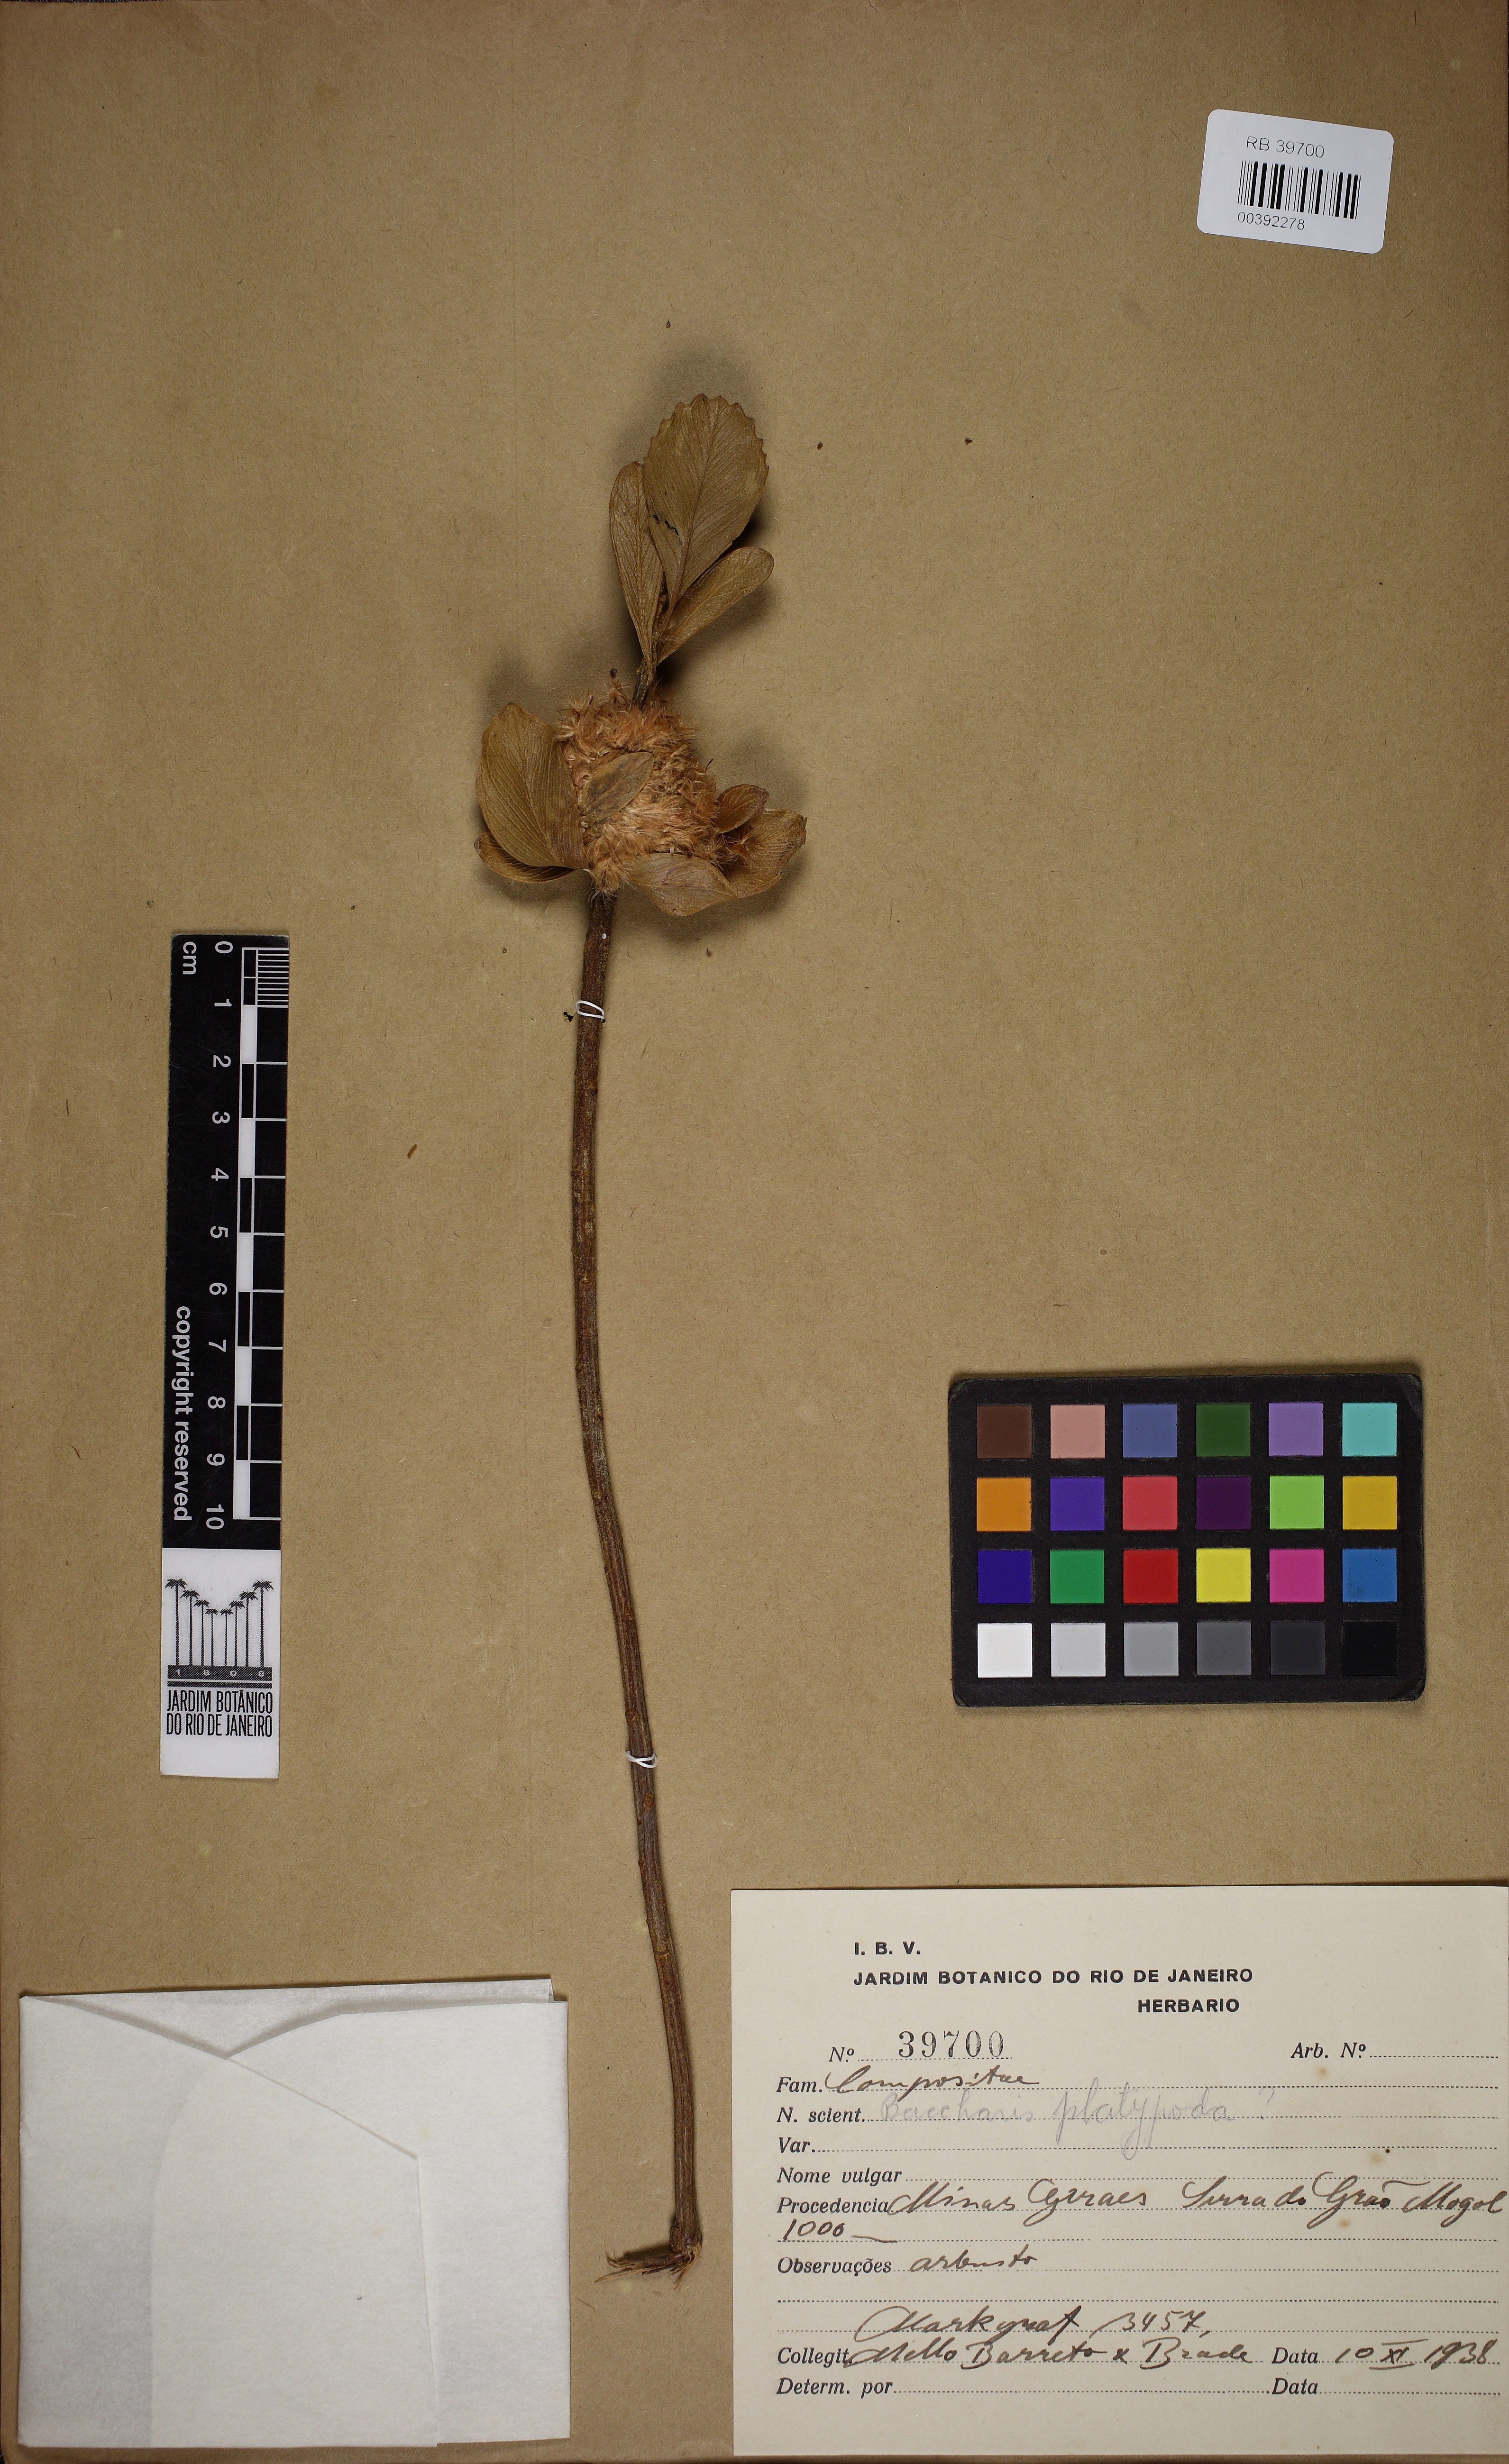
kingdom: Plantae
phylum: Tracheophyta
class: Magnoliopsida
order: Asterales
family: Asteraceae
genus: Baccharis
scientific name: Baccharis platypoda
